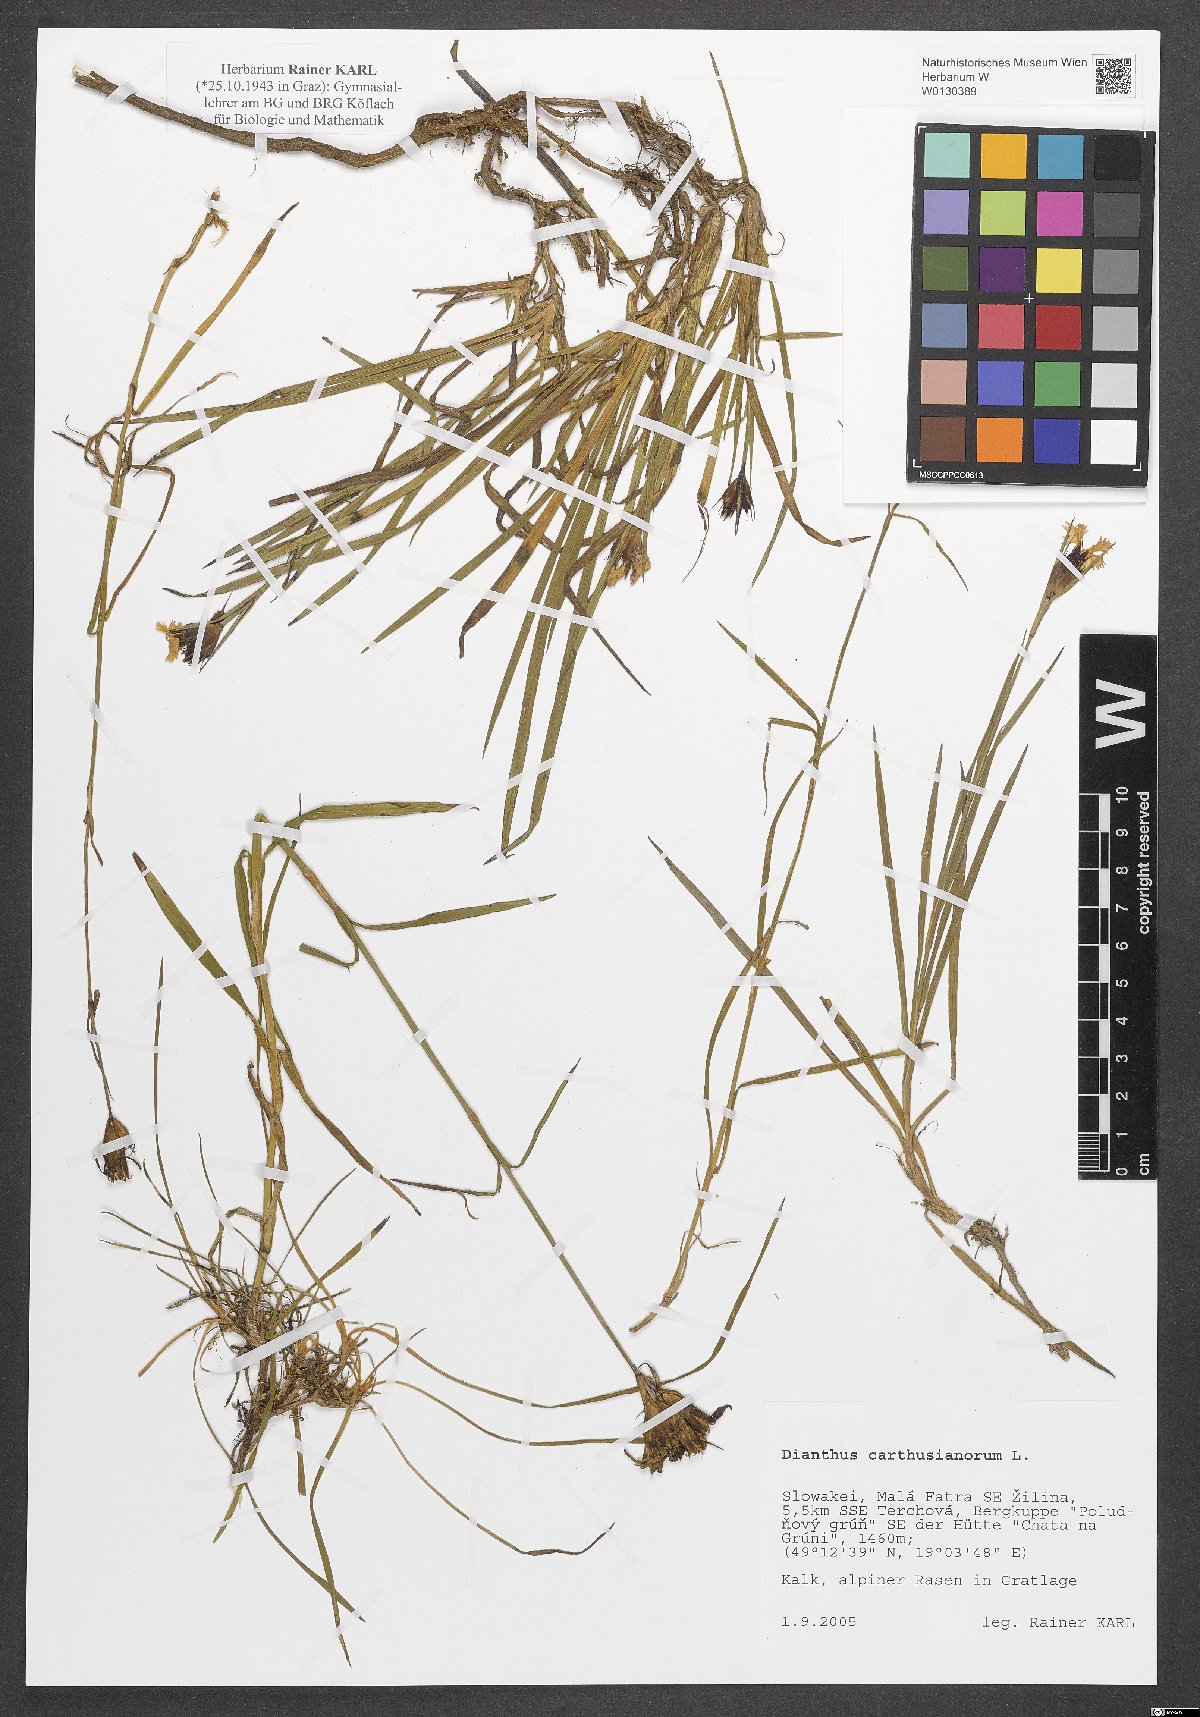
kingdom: Plantae
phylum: Tracheophyta
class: Magnoliopsida
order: Caryophyllales
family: Caryophyllaceae
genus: Dianthus
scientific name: Dianthus carthusianorum
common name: Carthusian pink
